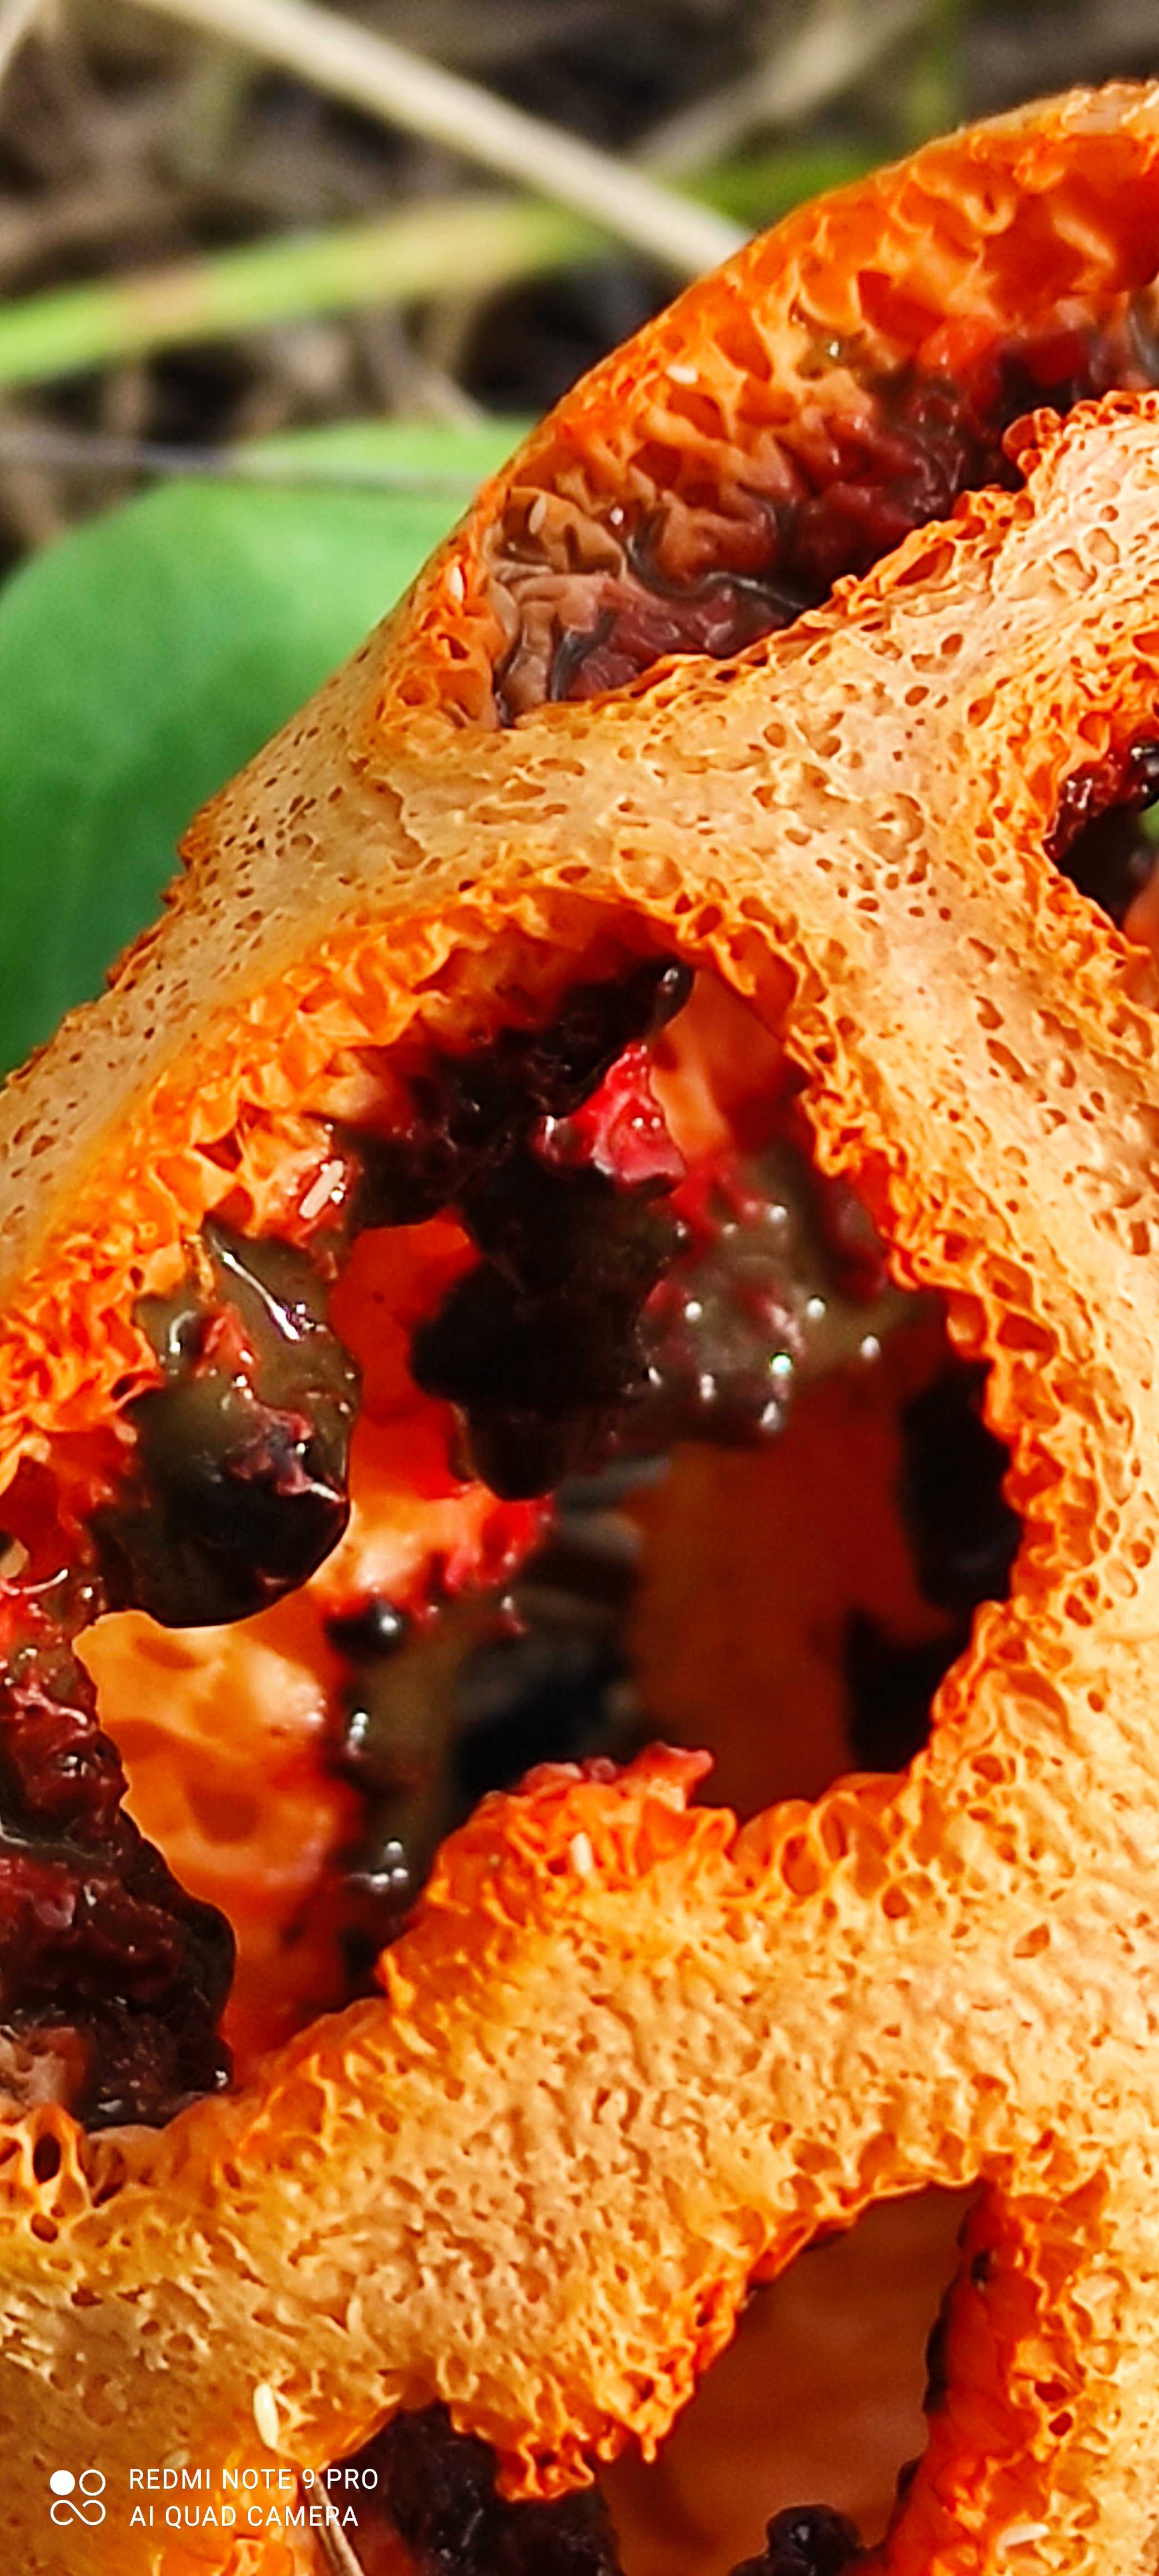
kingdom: Fungi
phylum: Basidiomycota
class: Agaricomycetes
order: Phallales
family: Phallaceae
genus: Clathrus
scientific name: Clathrus ruber
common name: rød gitterkugle
